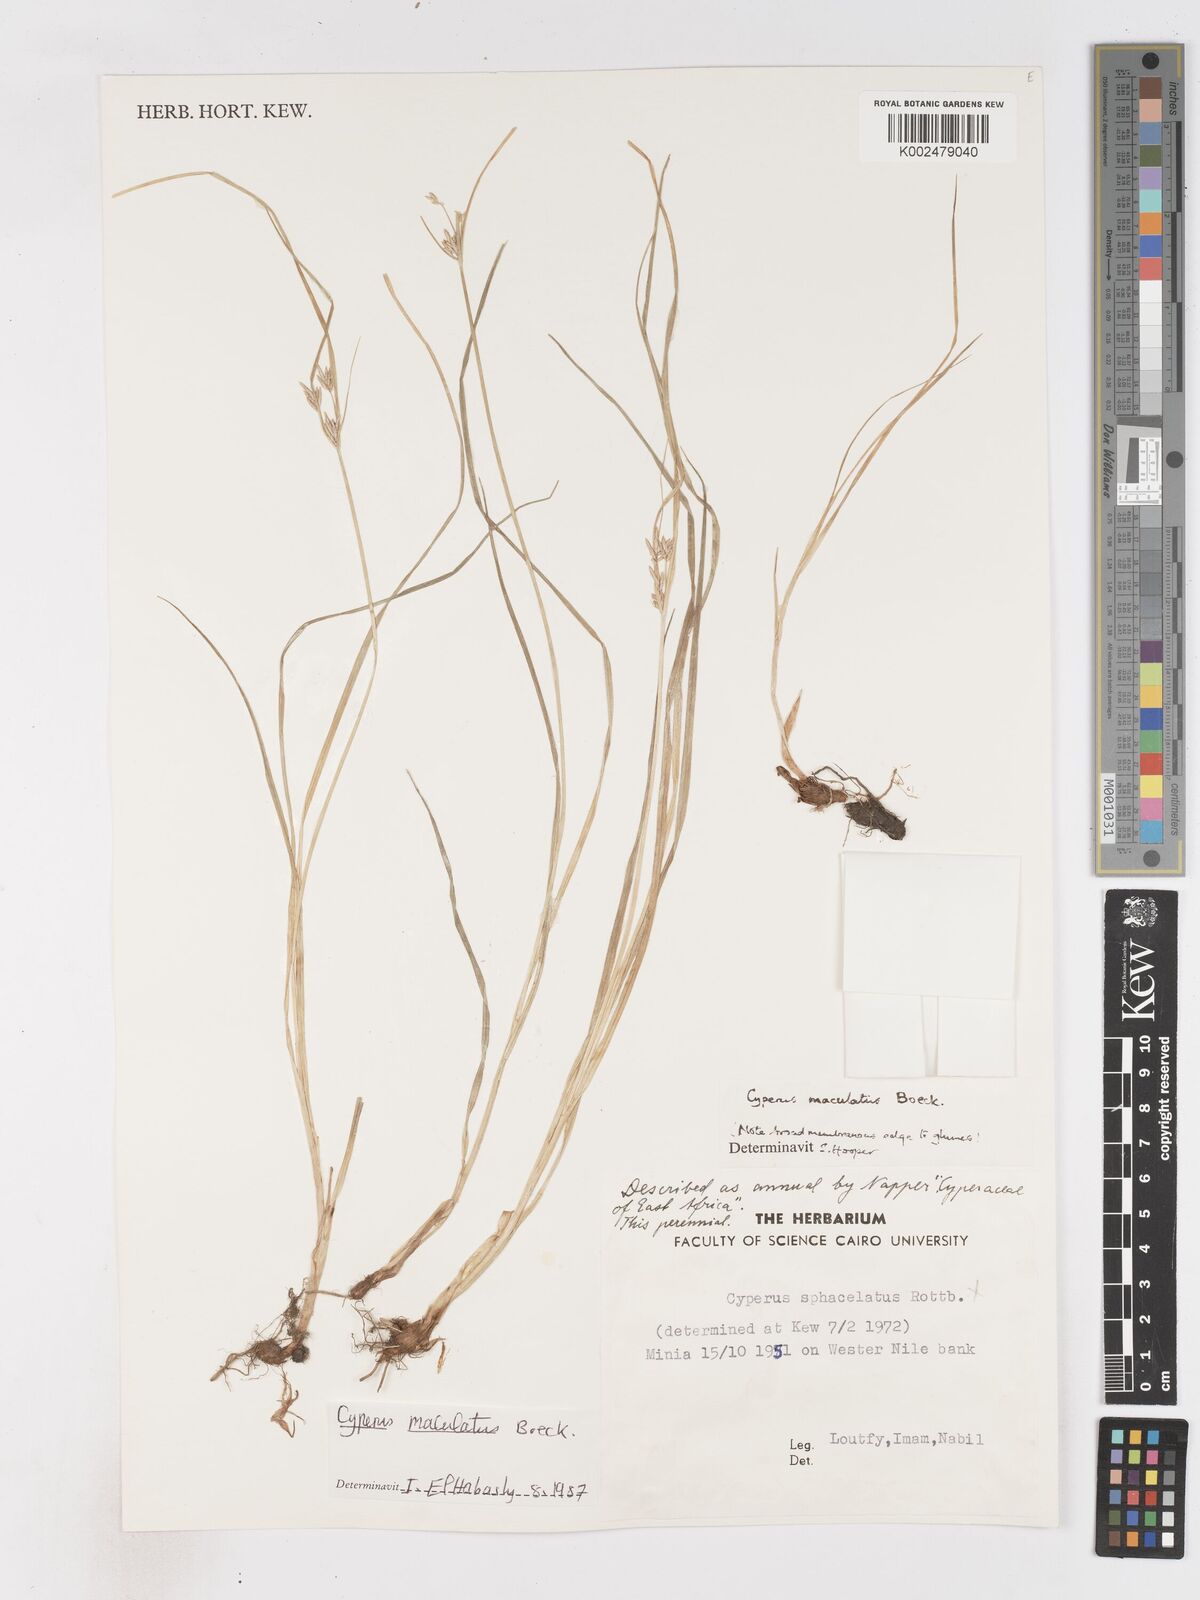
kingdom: Plantae
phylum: Tracheophyta
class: Liliopsida
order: Poales
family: Cyperaceae
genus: Cyperus
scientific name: Cyperus maculatus
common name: Maculated sedge
